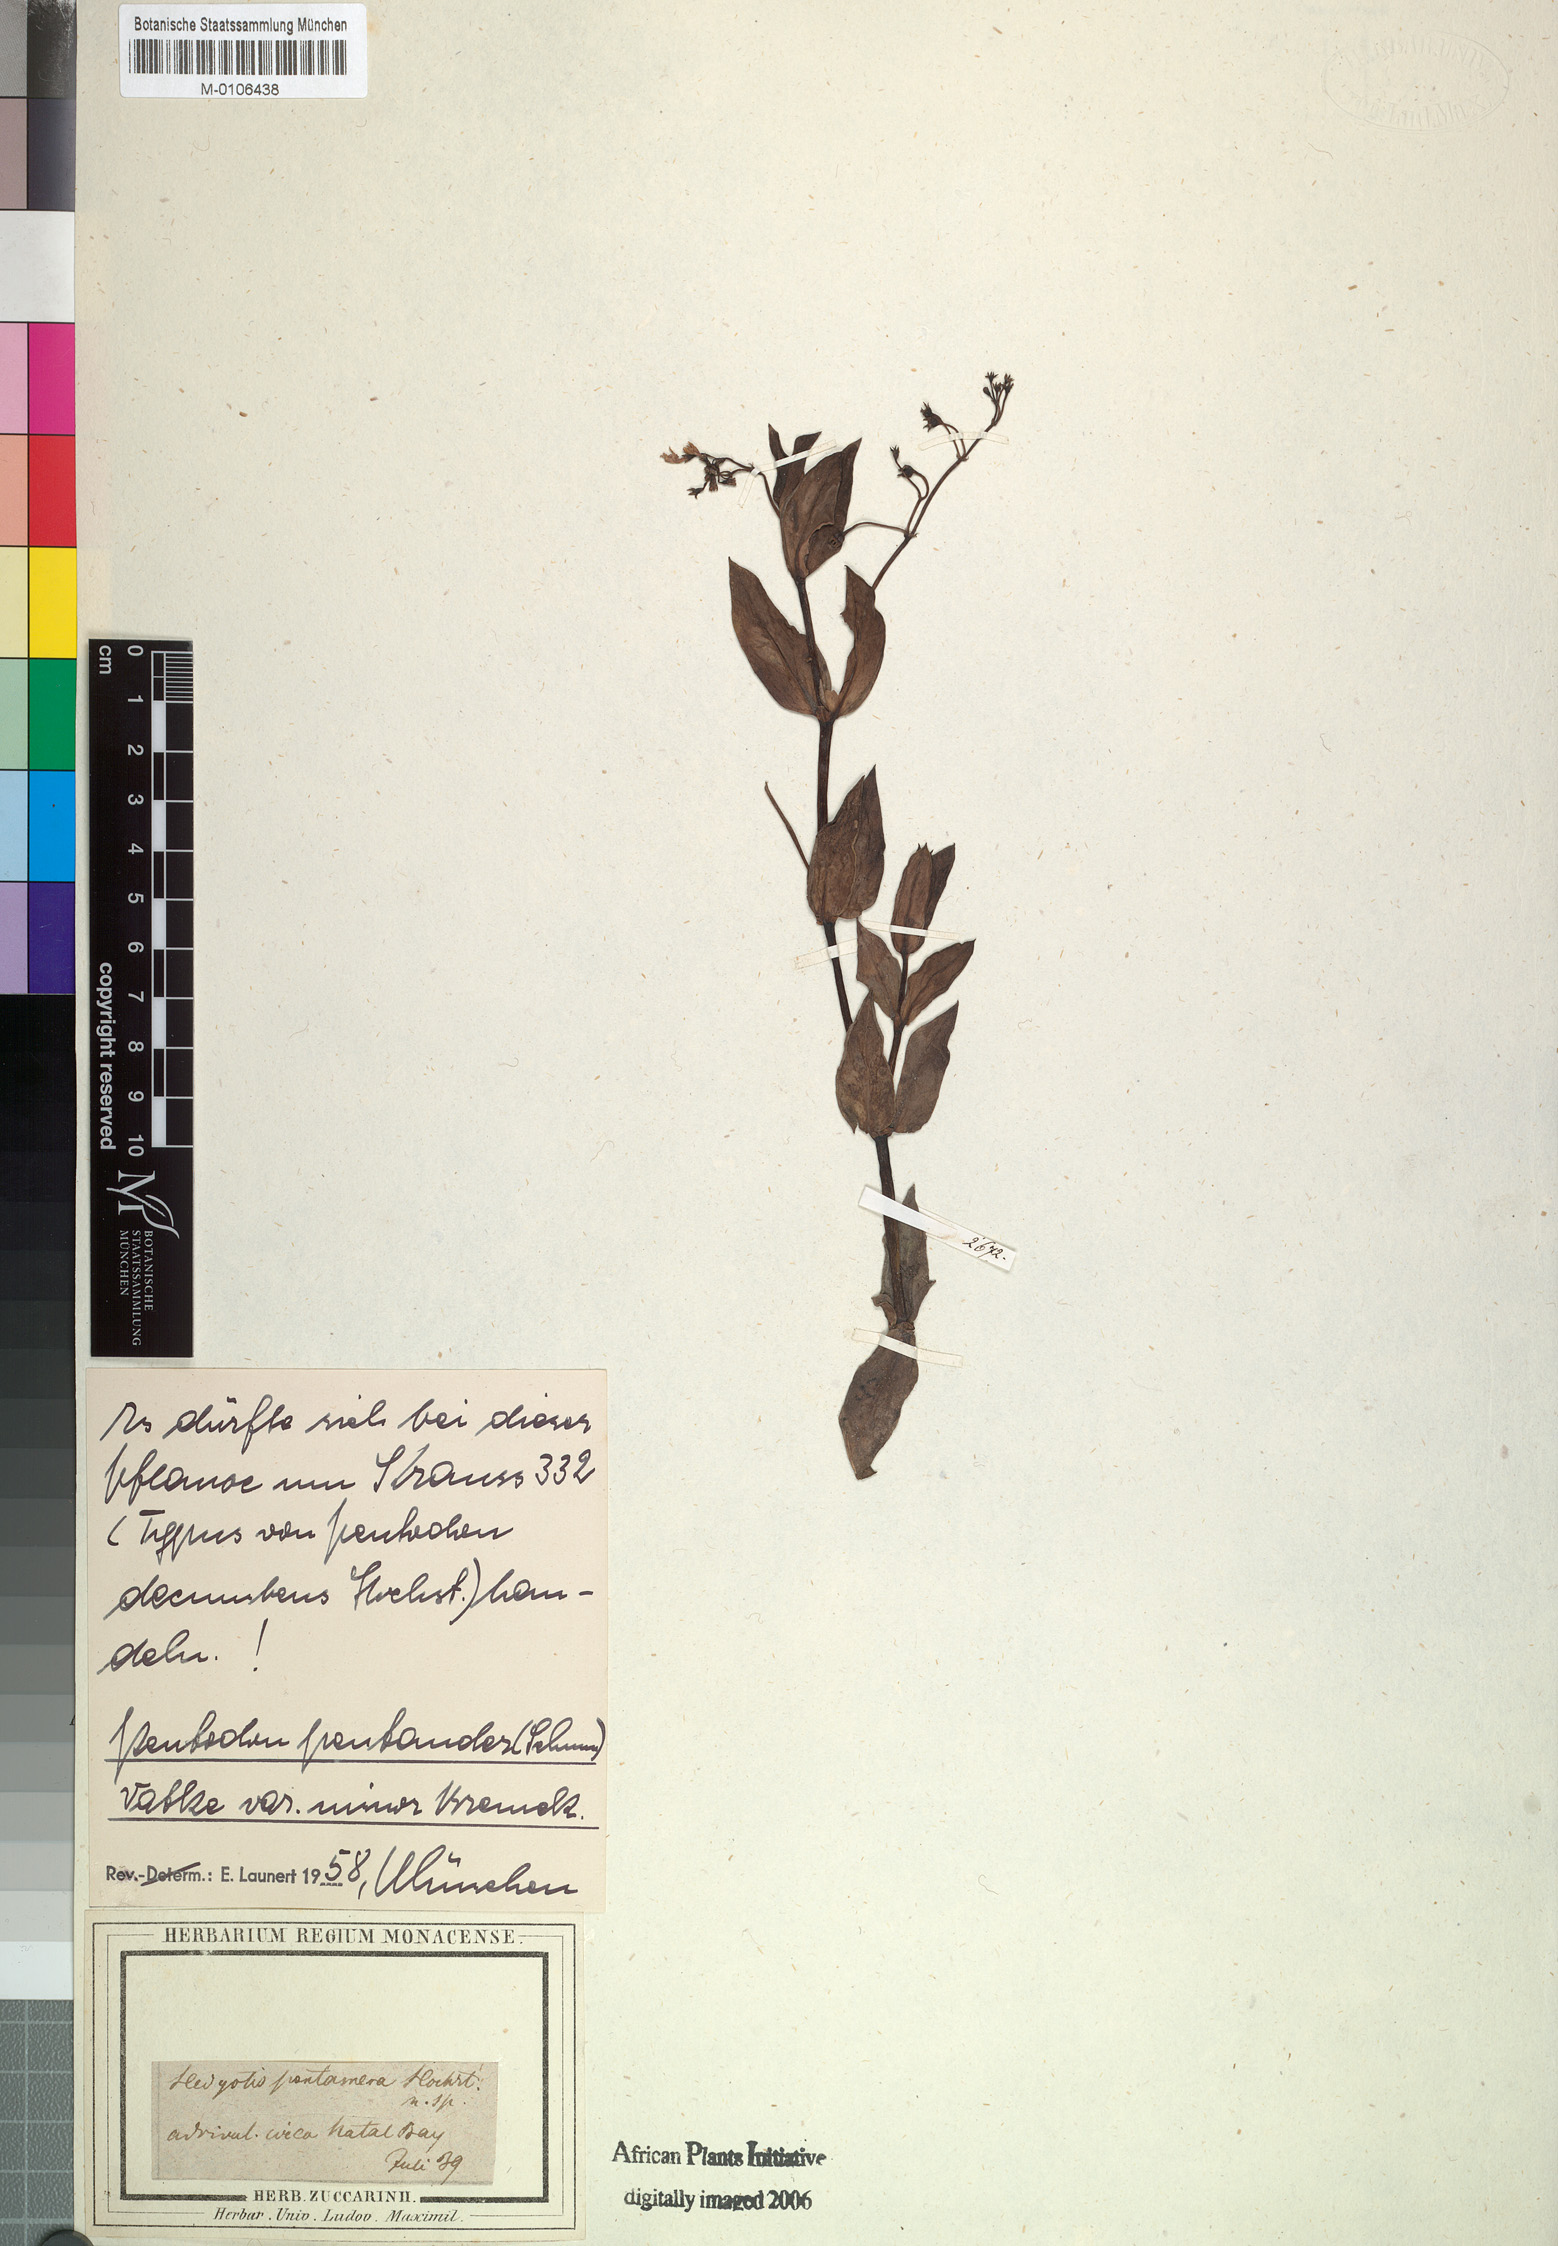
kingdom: Plantae
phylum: Tracheophyta
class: Magnoliopsida
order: Gentianales
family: Rubiaceae
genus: Pentodon
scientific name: Pentodon pentandrus
